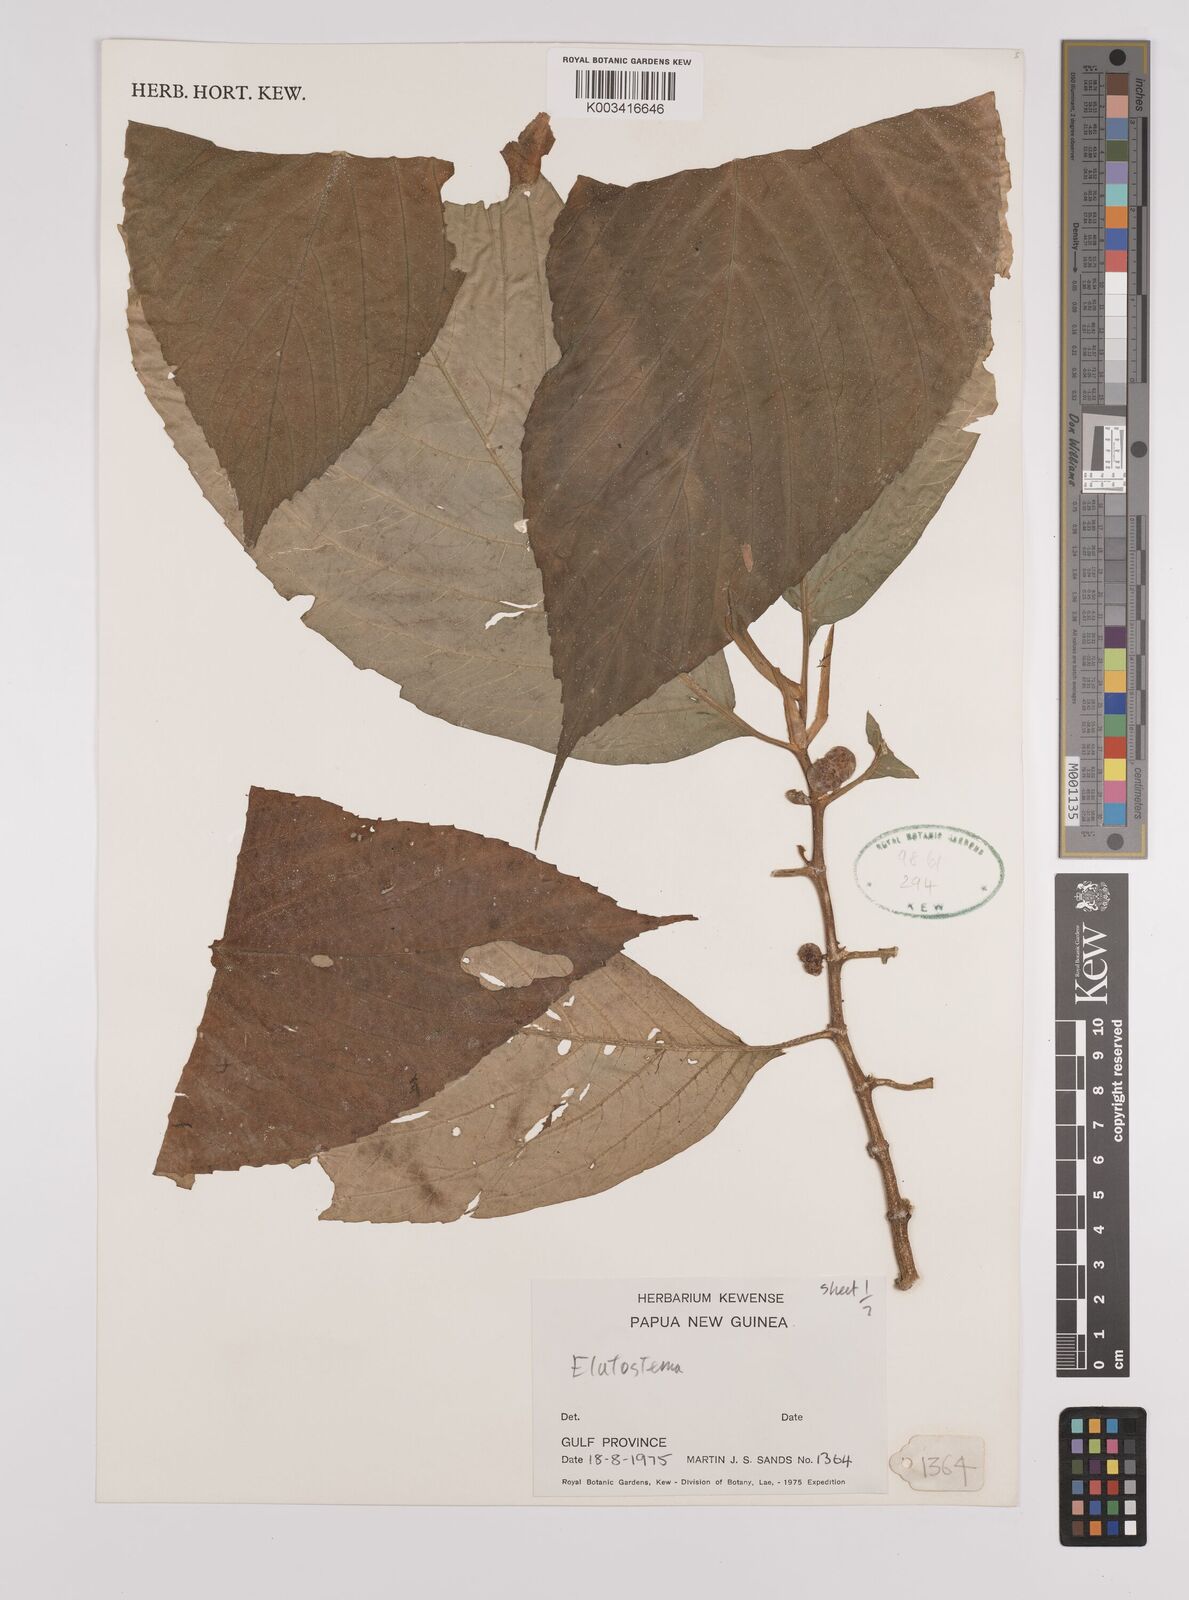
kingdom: Plantae
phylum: Tracheophyta
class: Magnoliopsida
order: Rosales
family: Urticaceae
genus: Elatostema
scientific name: Elatostema
